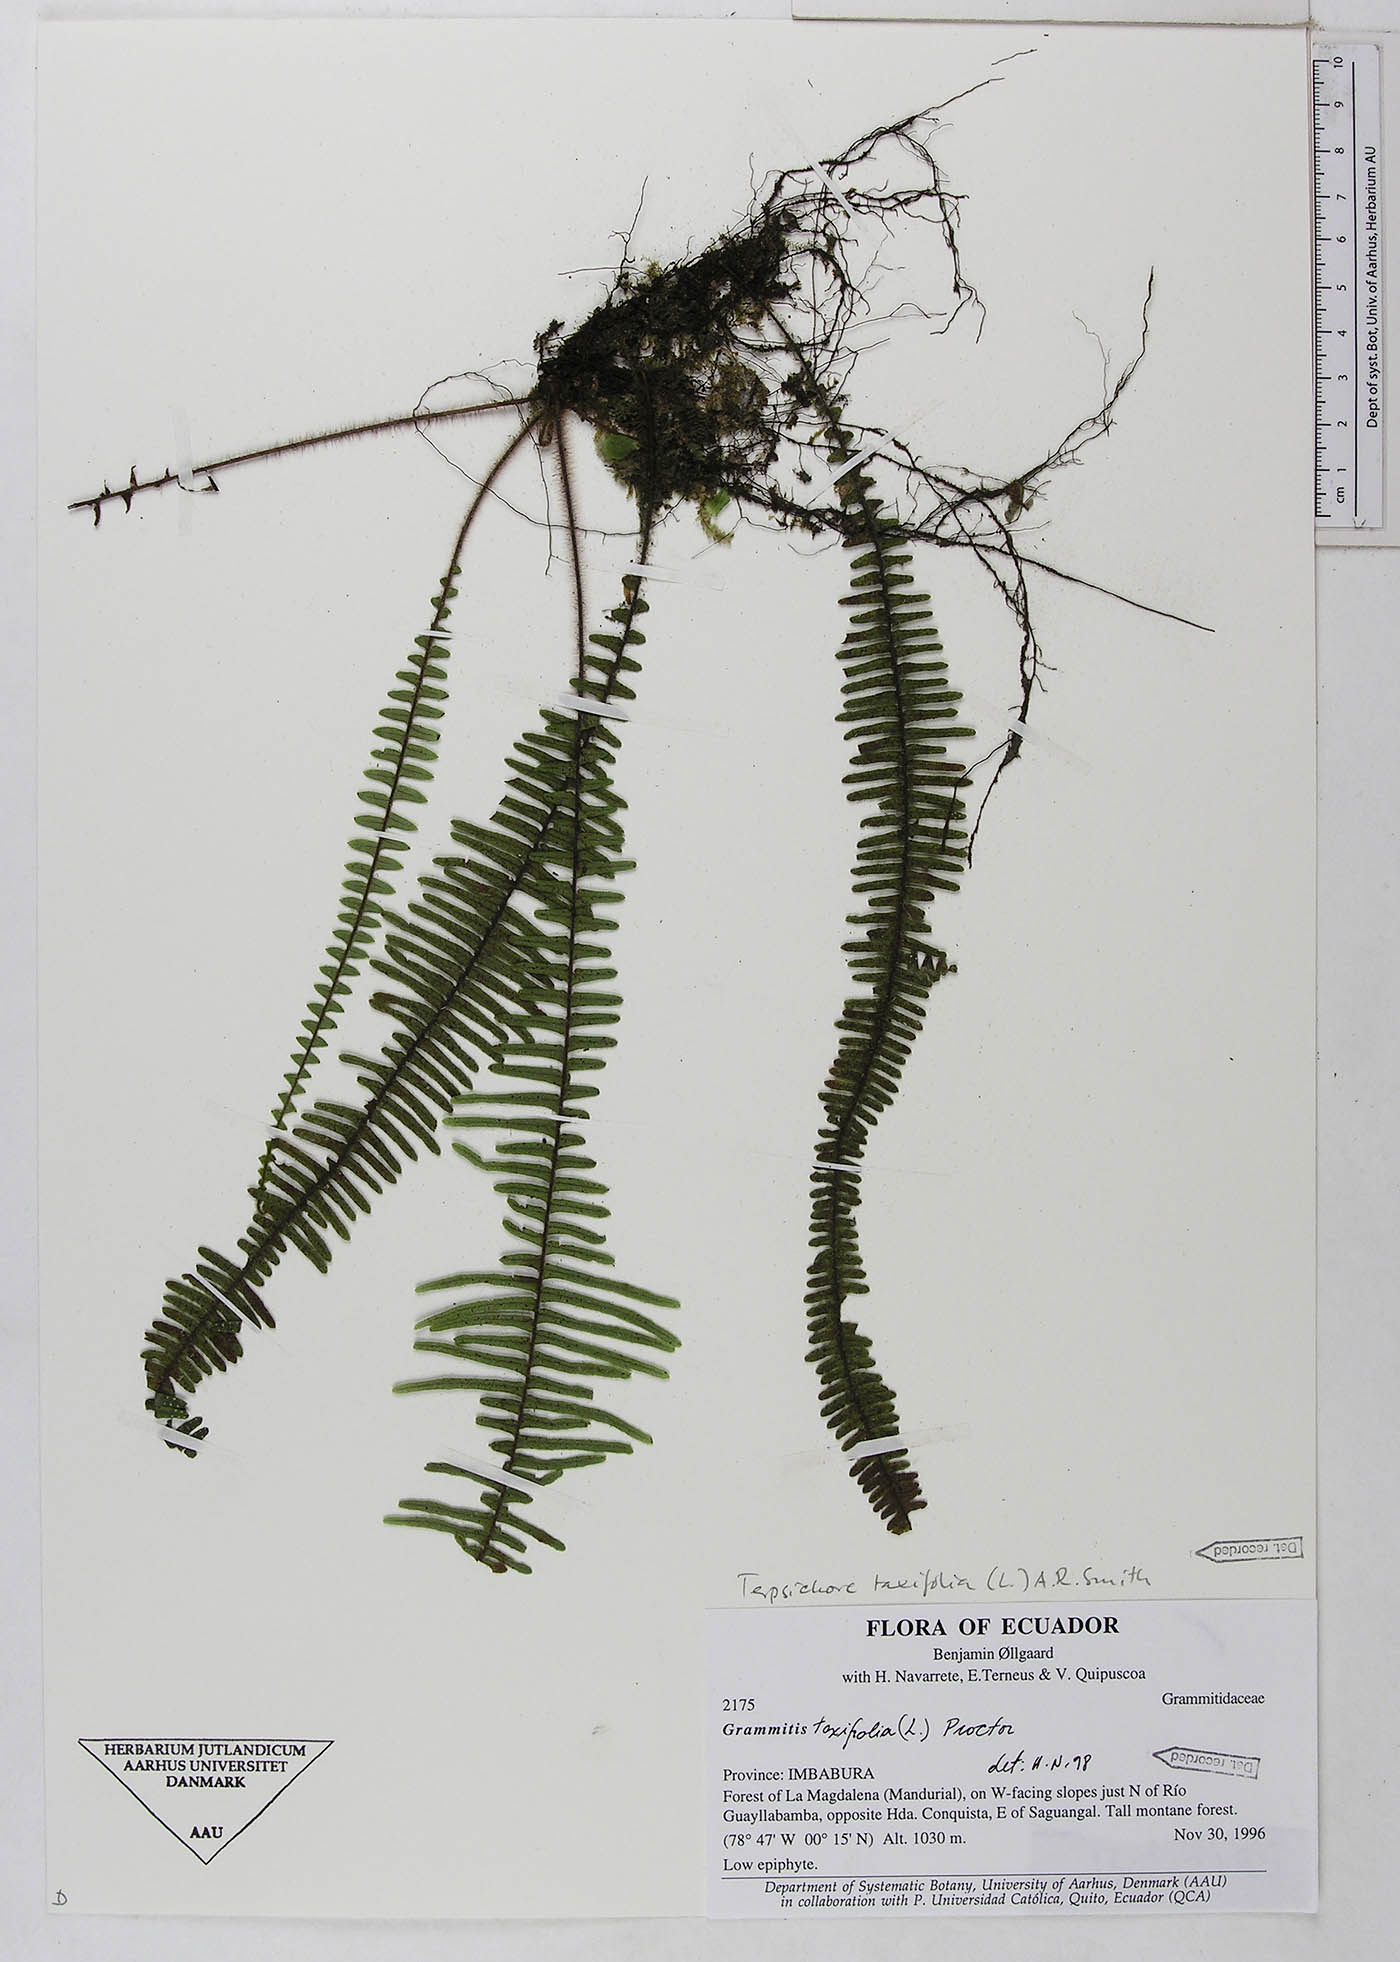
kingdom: Plantae
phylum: Tracheophyta
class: Polypodiopsida
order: Polypodiales
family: Polypodiaceae
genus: Mycopteris
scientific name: Mycopteris taxifolia
